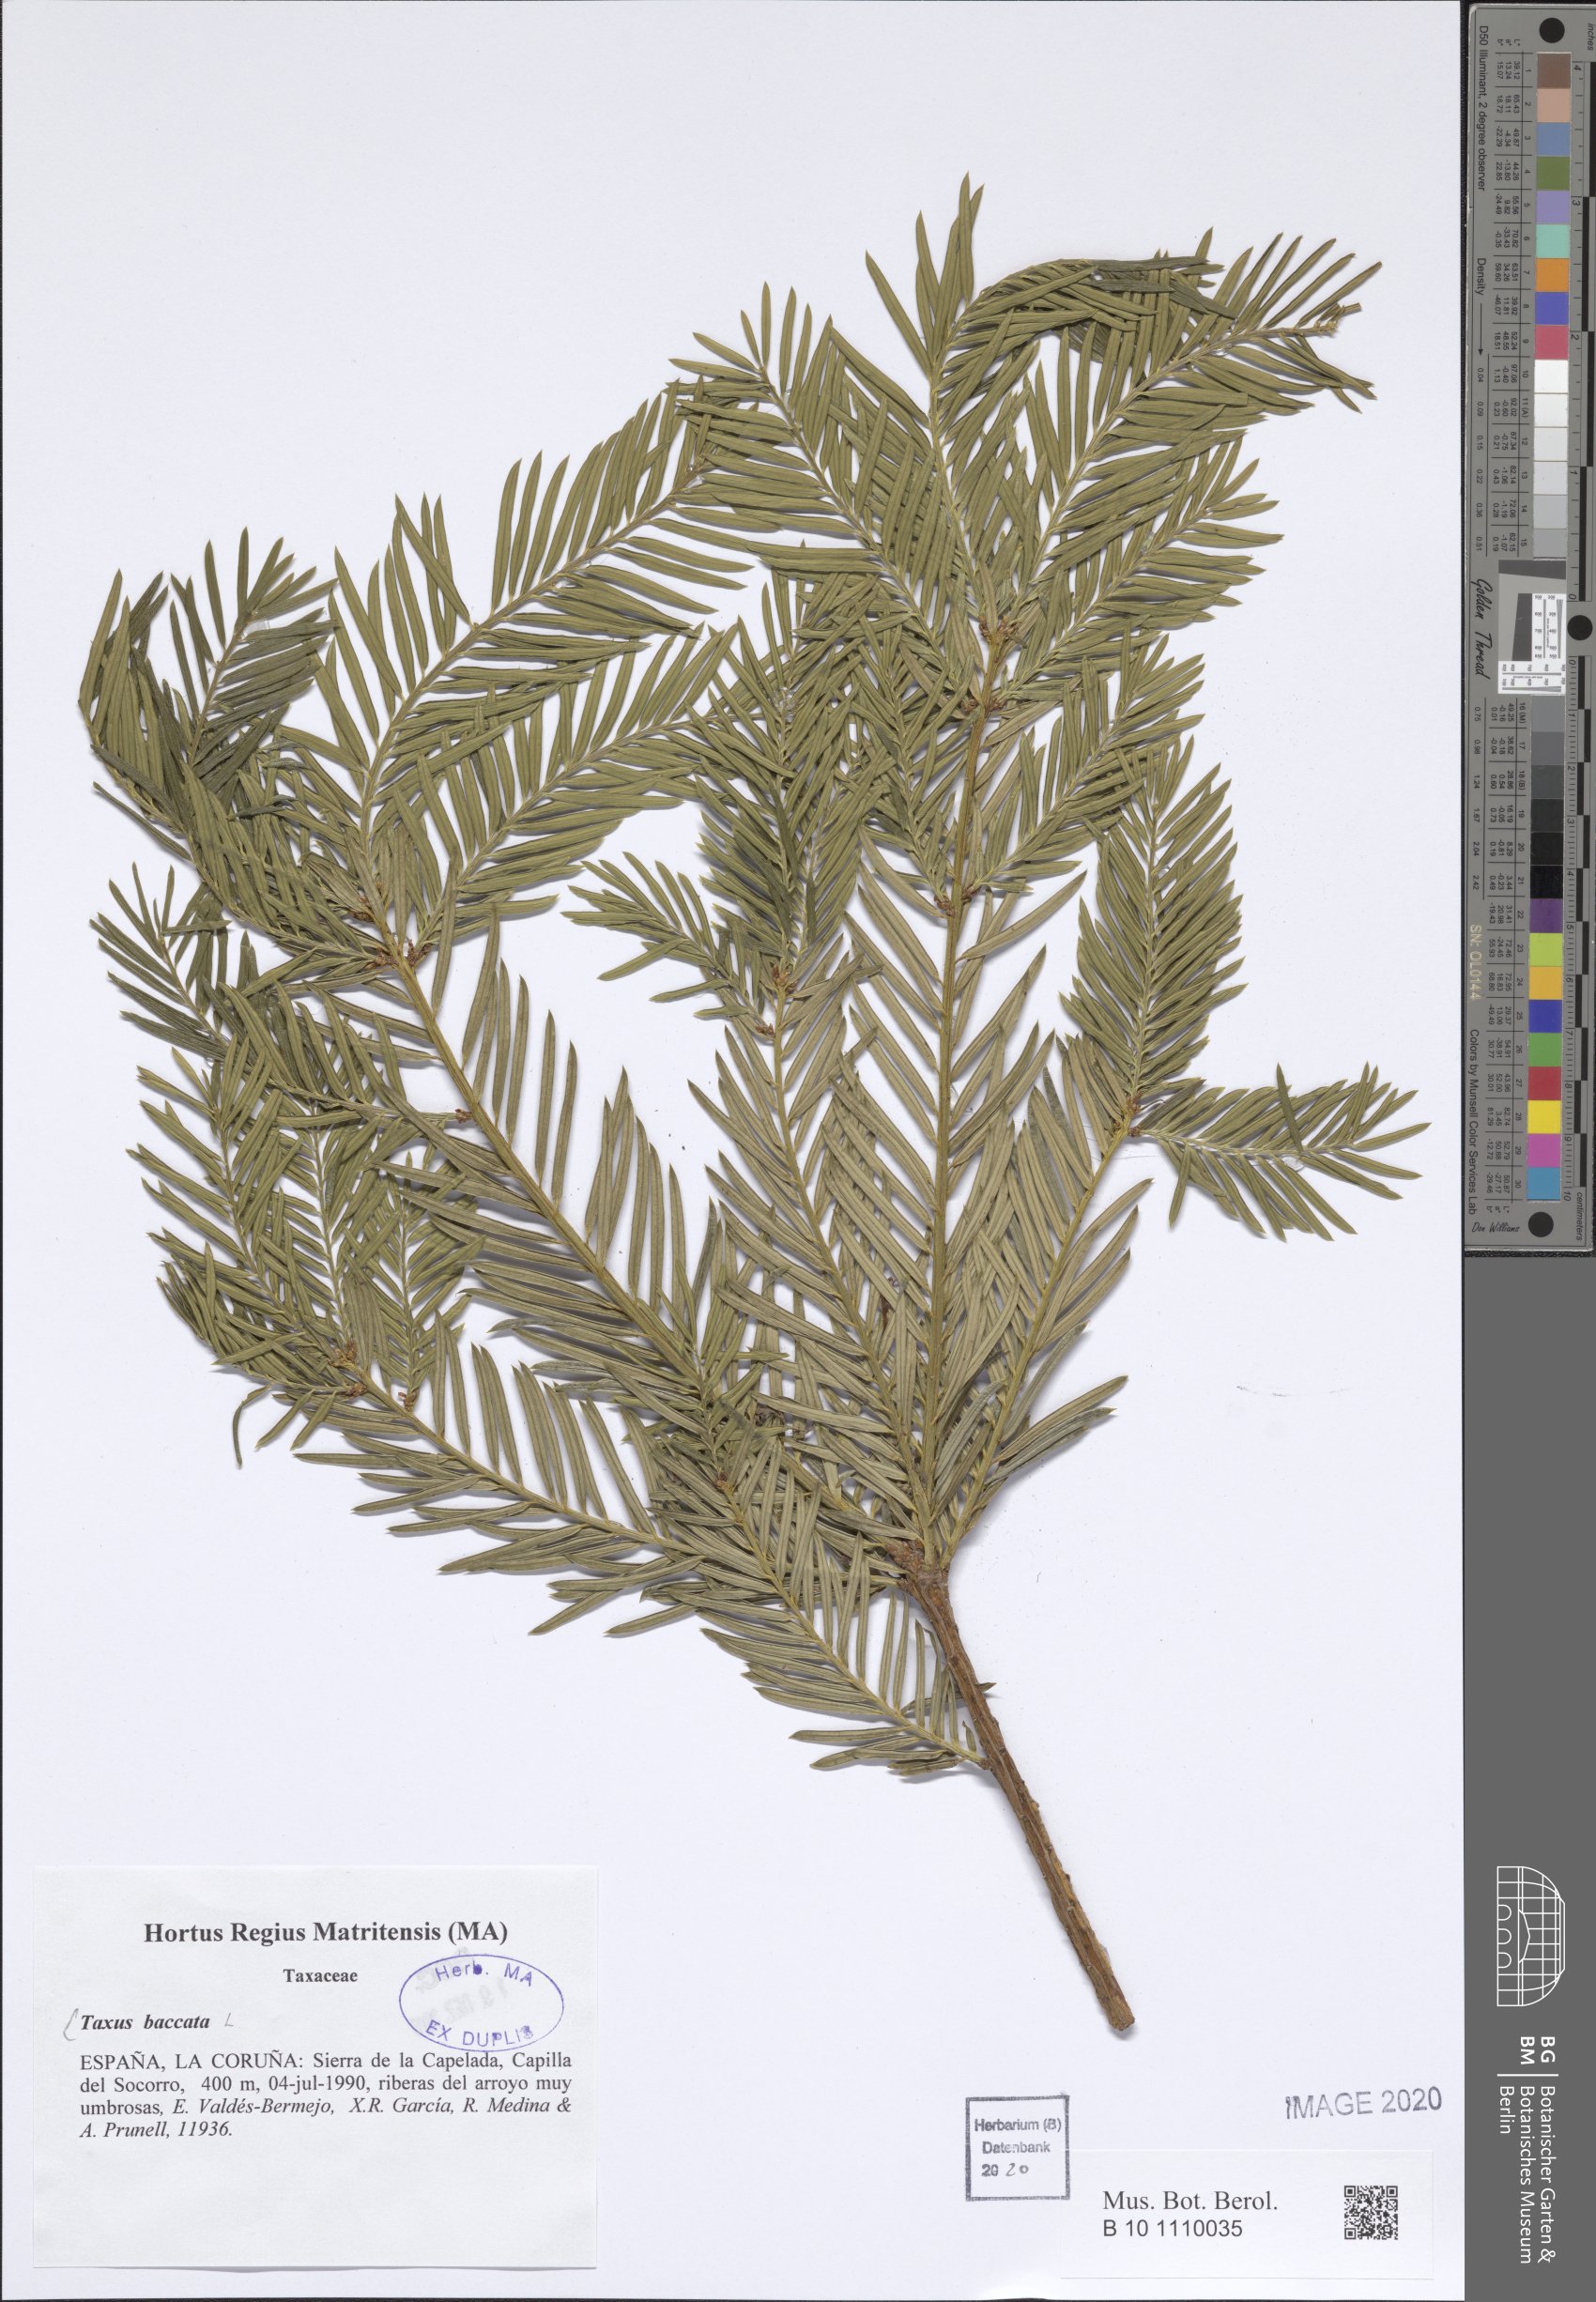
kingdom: Plantae
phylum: Tracheophyta
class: Pinopsida
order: Pinales
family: Taxaceae
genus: Taxus
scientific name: Taxus baccata
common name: Yew
